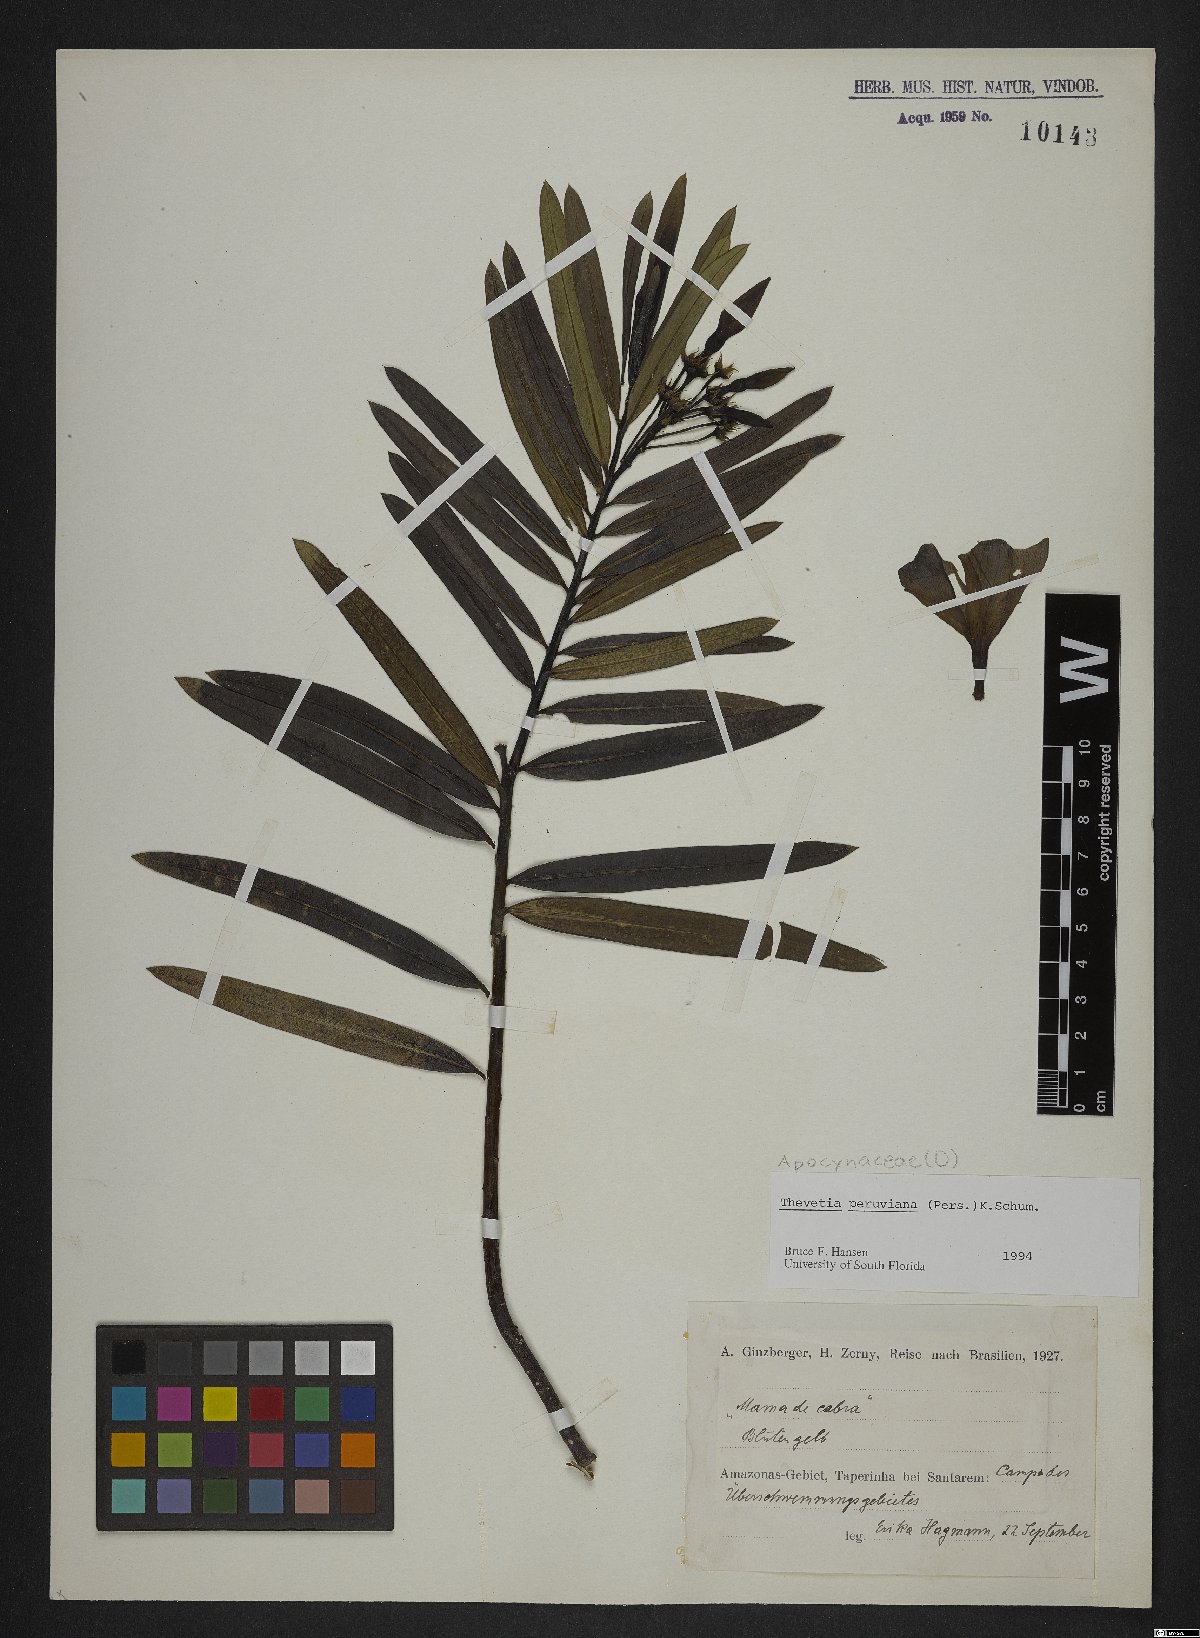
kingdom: Plantae
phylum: Tracheophyta
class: Magnoliopsida
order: Gentianales
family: Apocynaceae
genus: Cascabela
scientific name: Cascabela thevetia
